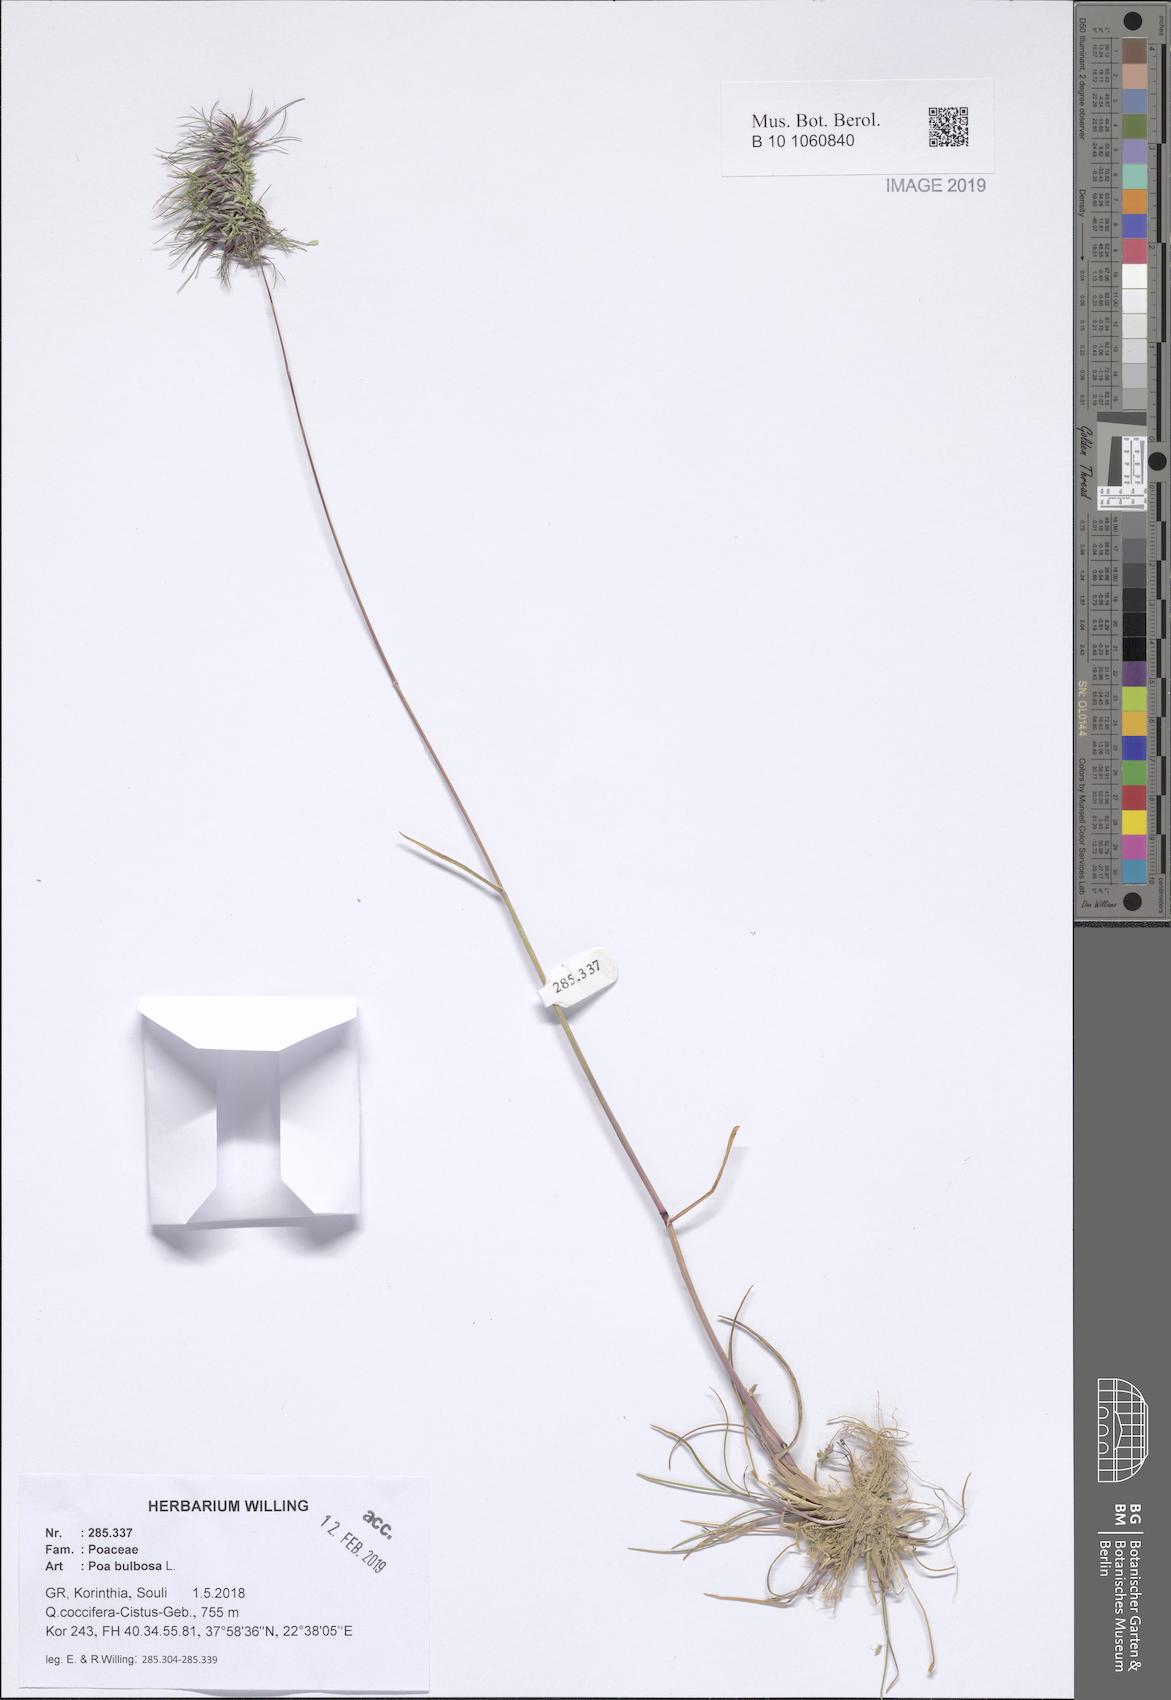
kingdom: Plantae
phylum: Tracheophyta
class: Liliopsida
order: Poales
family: Poaceae
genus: Poa
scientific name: Poa bulbosa
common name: Bulbous bluegrass
